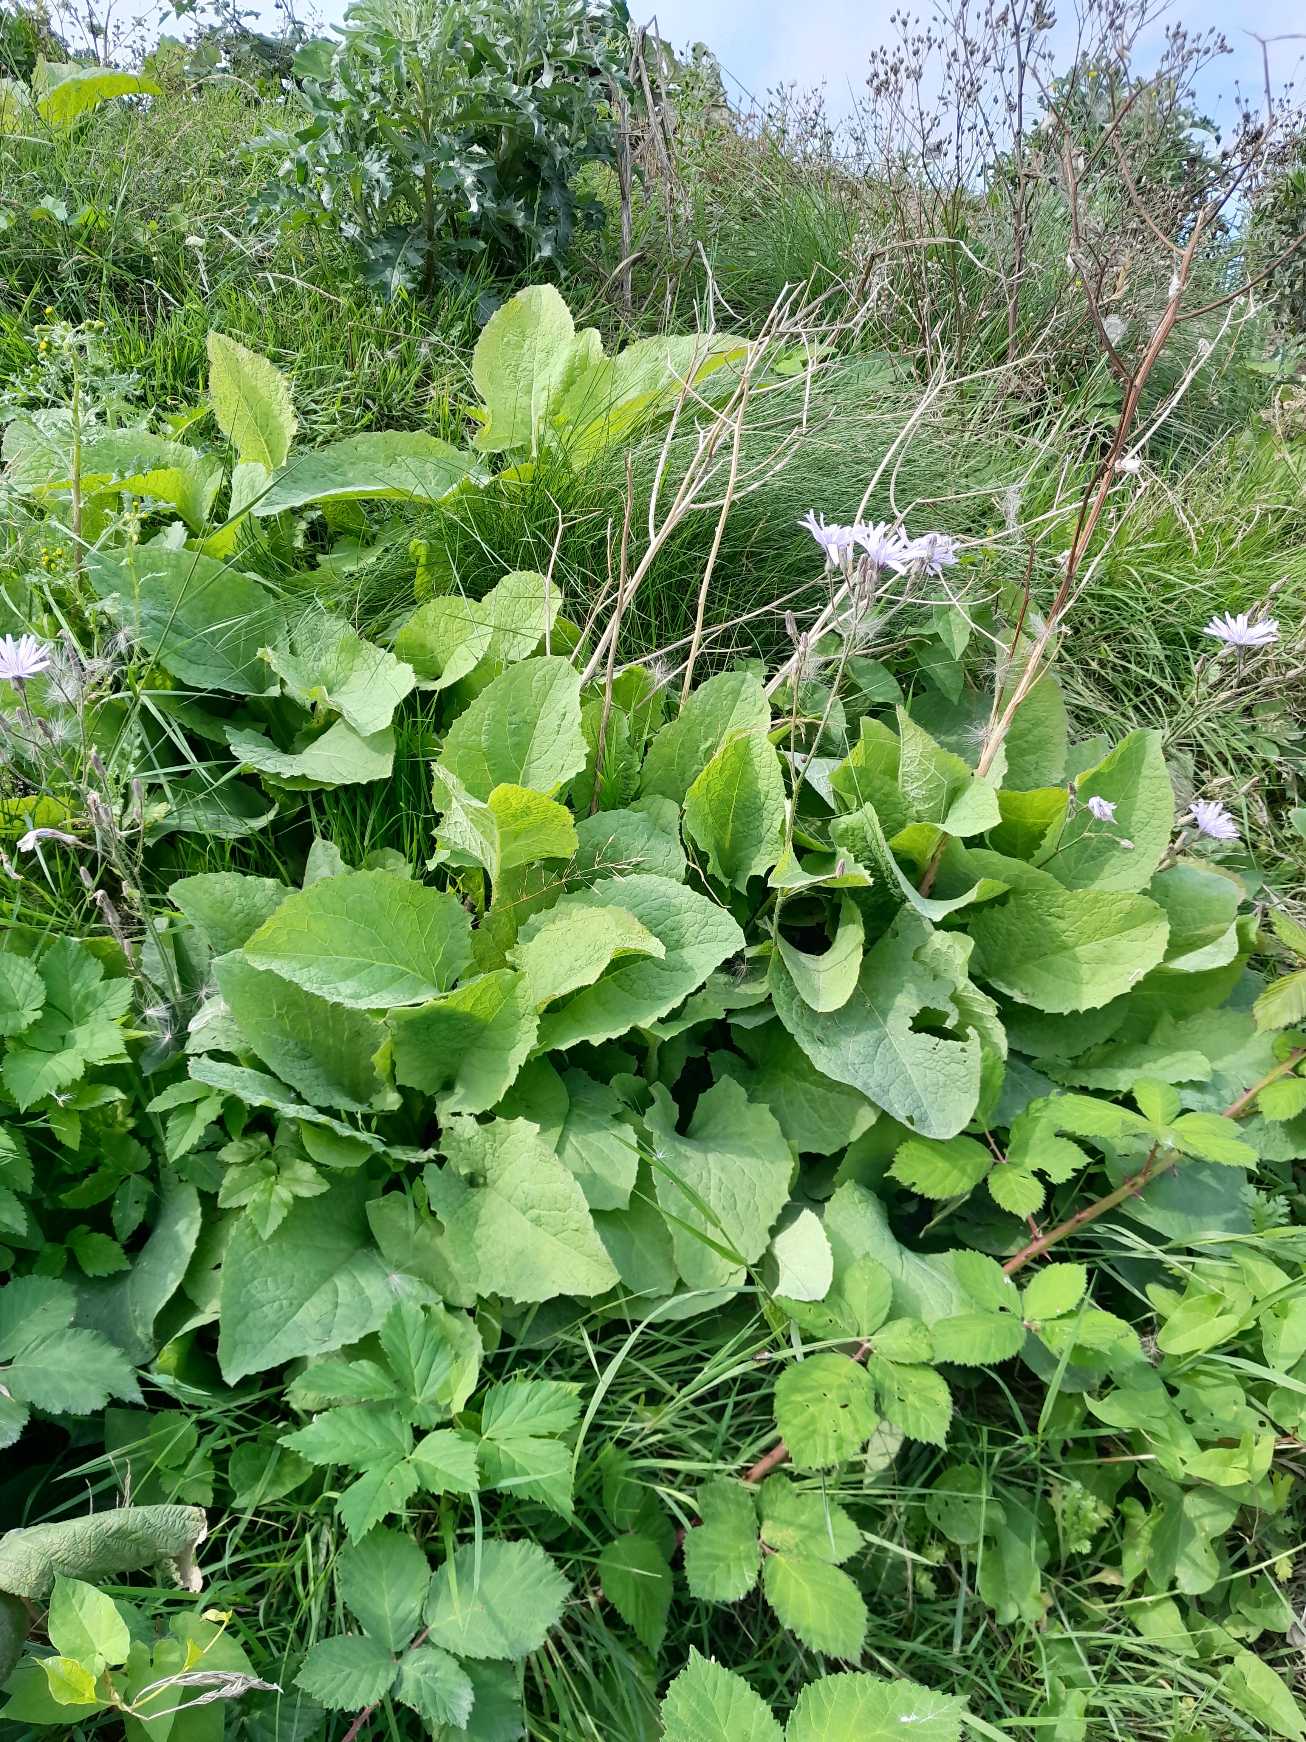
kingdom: Plantae
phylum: Tracheophyta
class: Magnoliopsida
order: Asterales
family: Asteraceae
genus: Lactuca
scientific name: Lactuca macrophylla
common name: Kæmpe-salat
